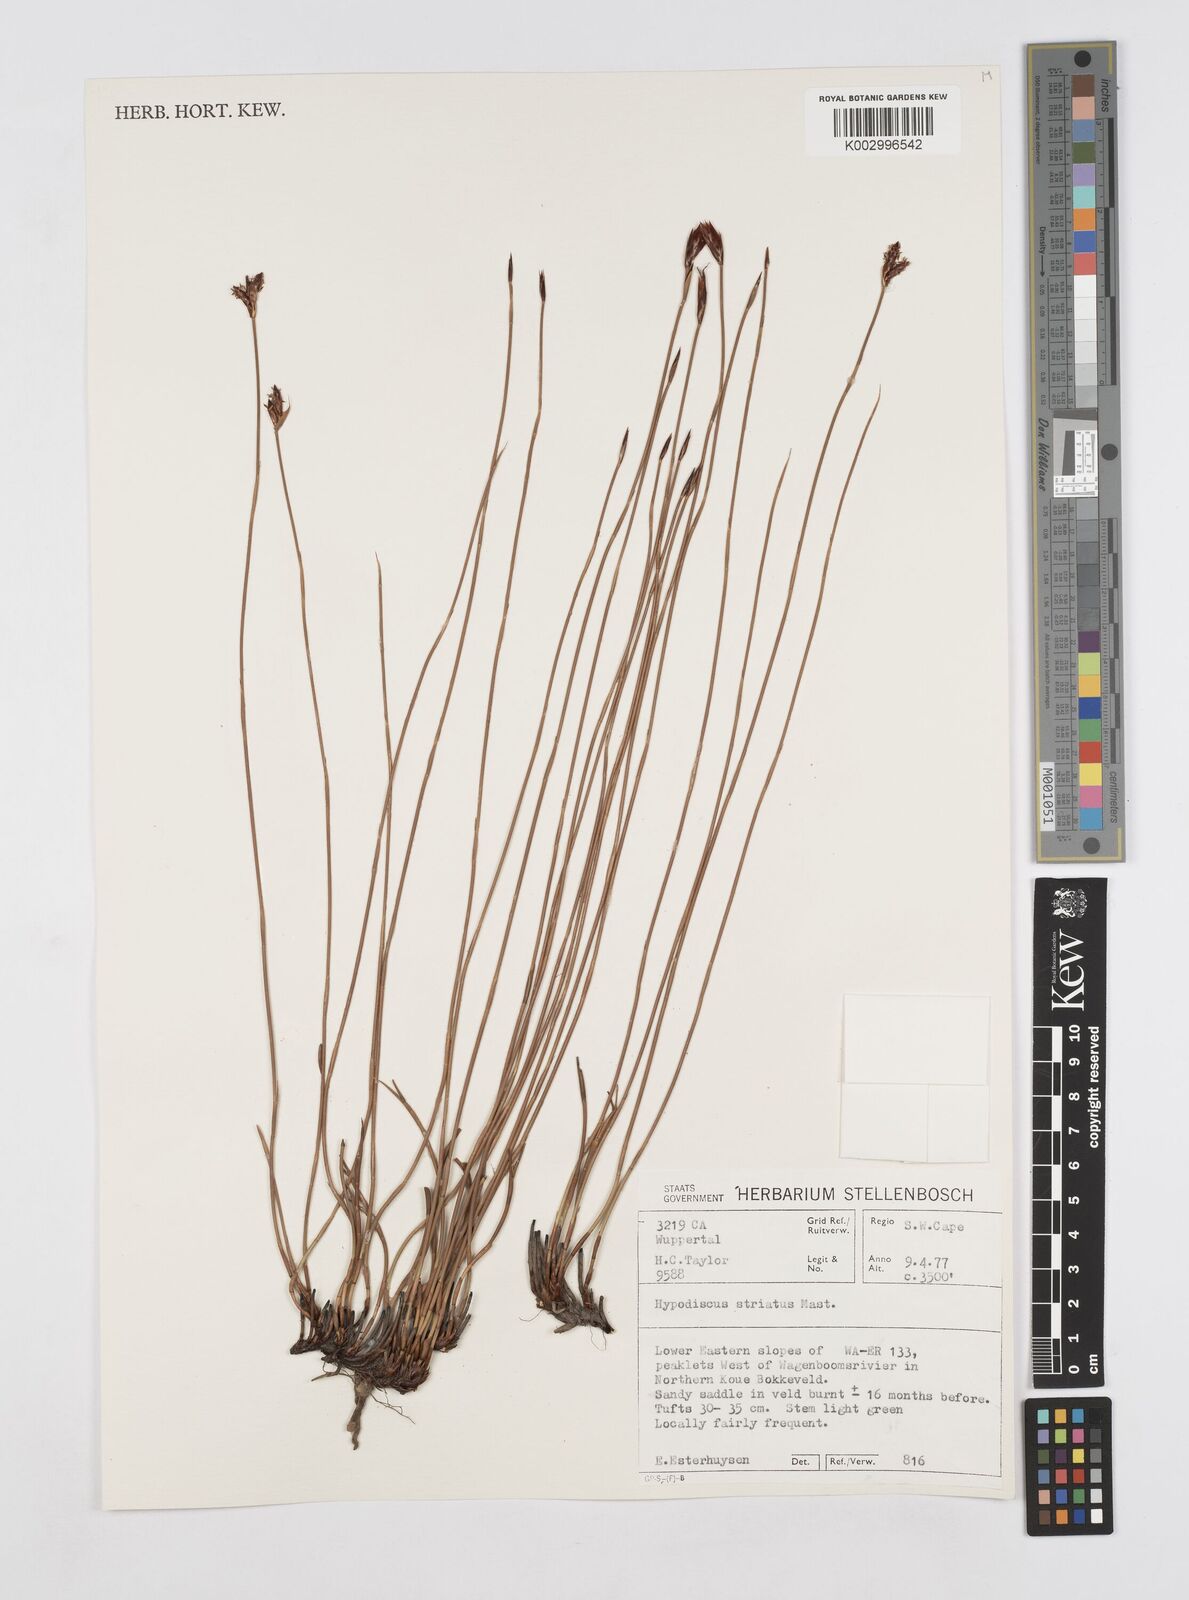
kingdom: Plantae
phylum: Tracheophyta
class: Liliopsida
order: Poales
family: Restionaceae
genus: Hypodiscus
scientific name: Hypodiscus striatus
